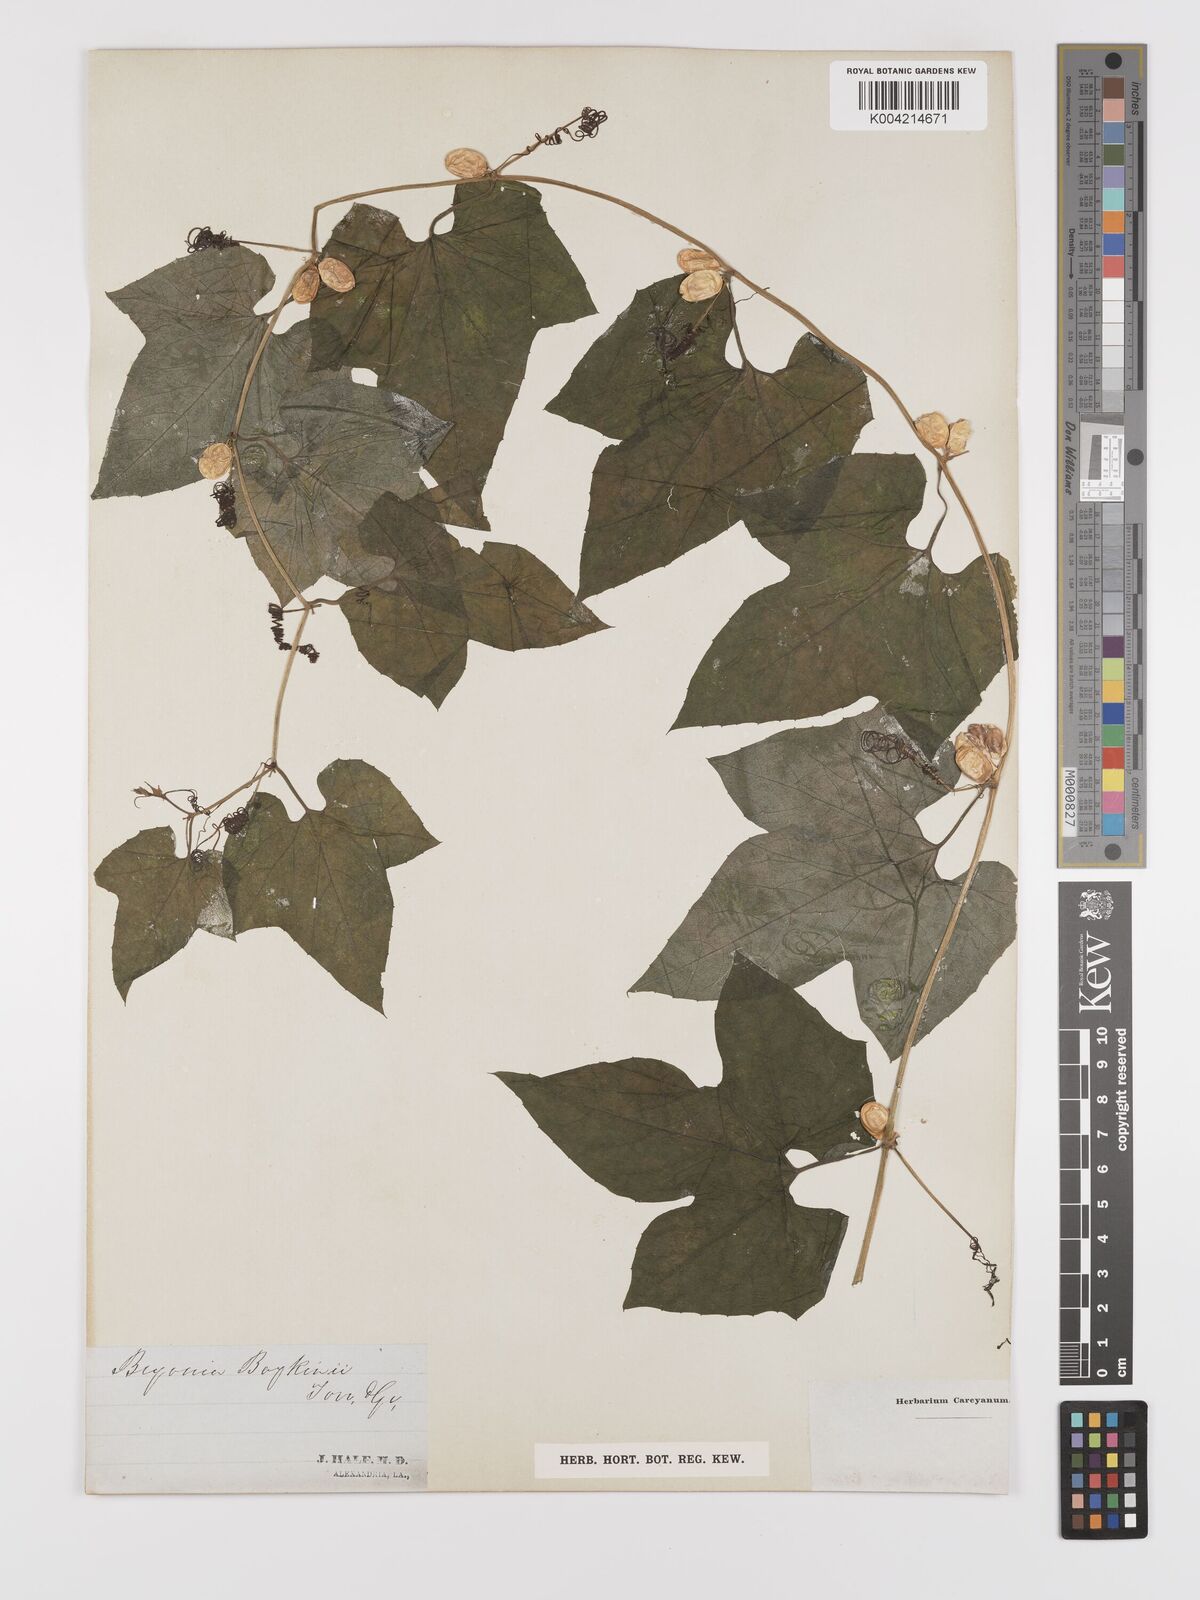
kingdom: Plantae
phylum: Tracheophyta
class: Magnoliopsida
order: Cucurbitales
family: Cucurbitaceae
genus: Cayaponia
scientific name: Cayaponia quinqueloba
